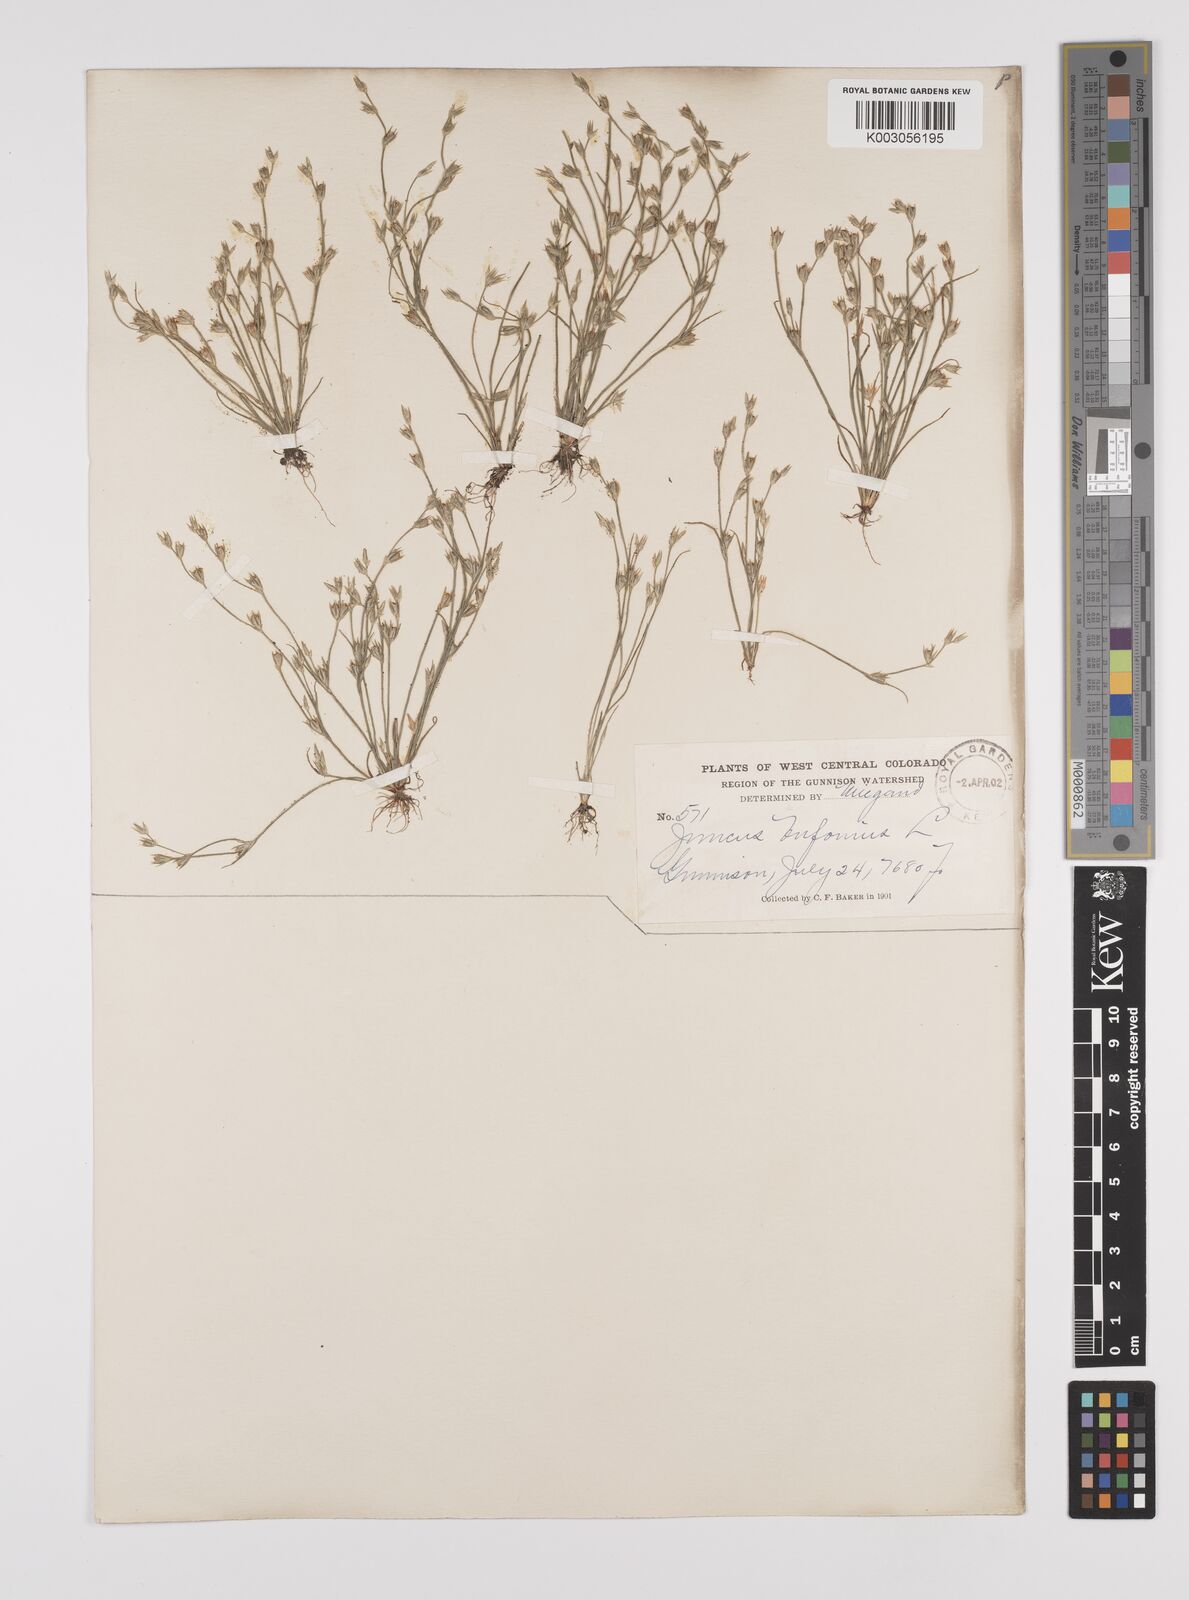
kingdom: Plantae
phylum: Tracheophyta
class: Liliopsida
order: Poales
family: Juncaceae
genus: Juncus
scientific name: Juncus bufonius
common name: Toad rush
